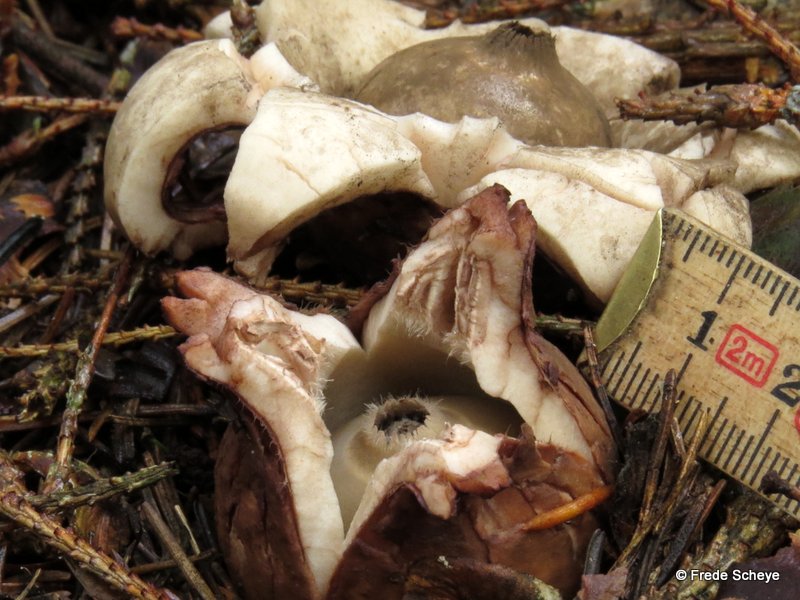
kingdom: Fungi
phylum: Basidiomycota
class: Agaricomycetes
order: Geastrales
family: Geastraceae
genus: Geastrum
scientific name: Geastrum michelianum
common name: kødet stjernebold
